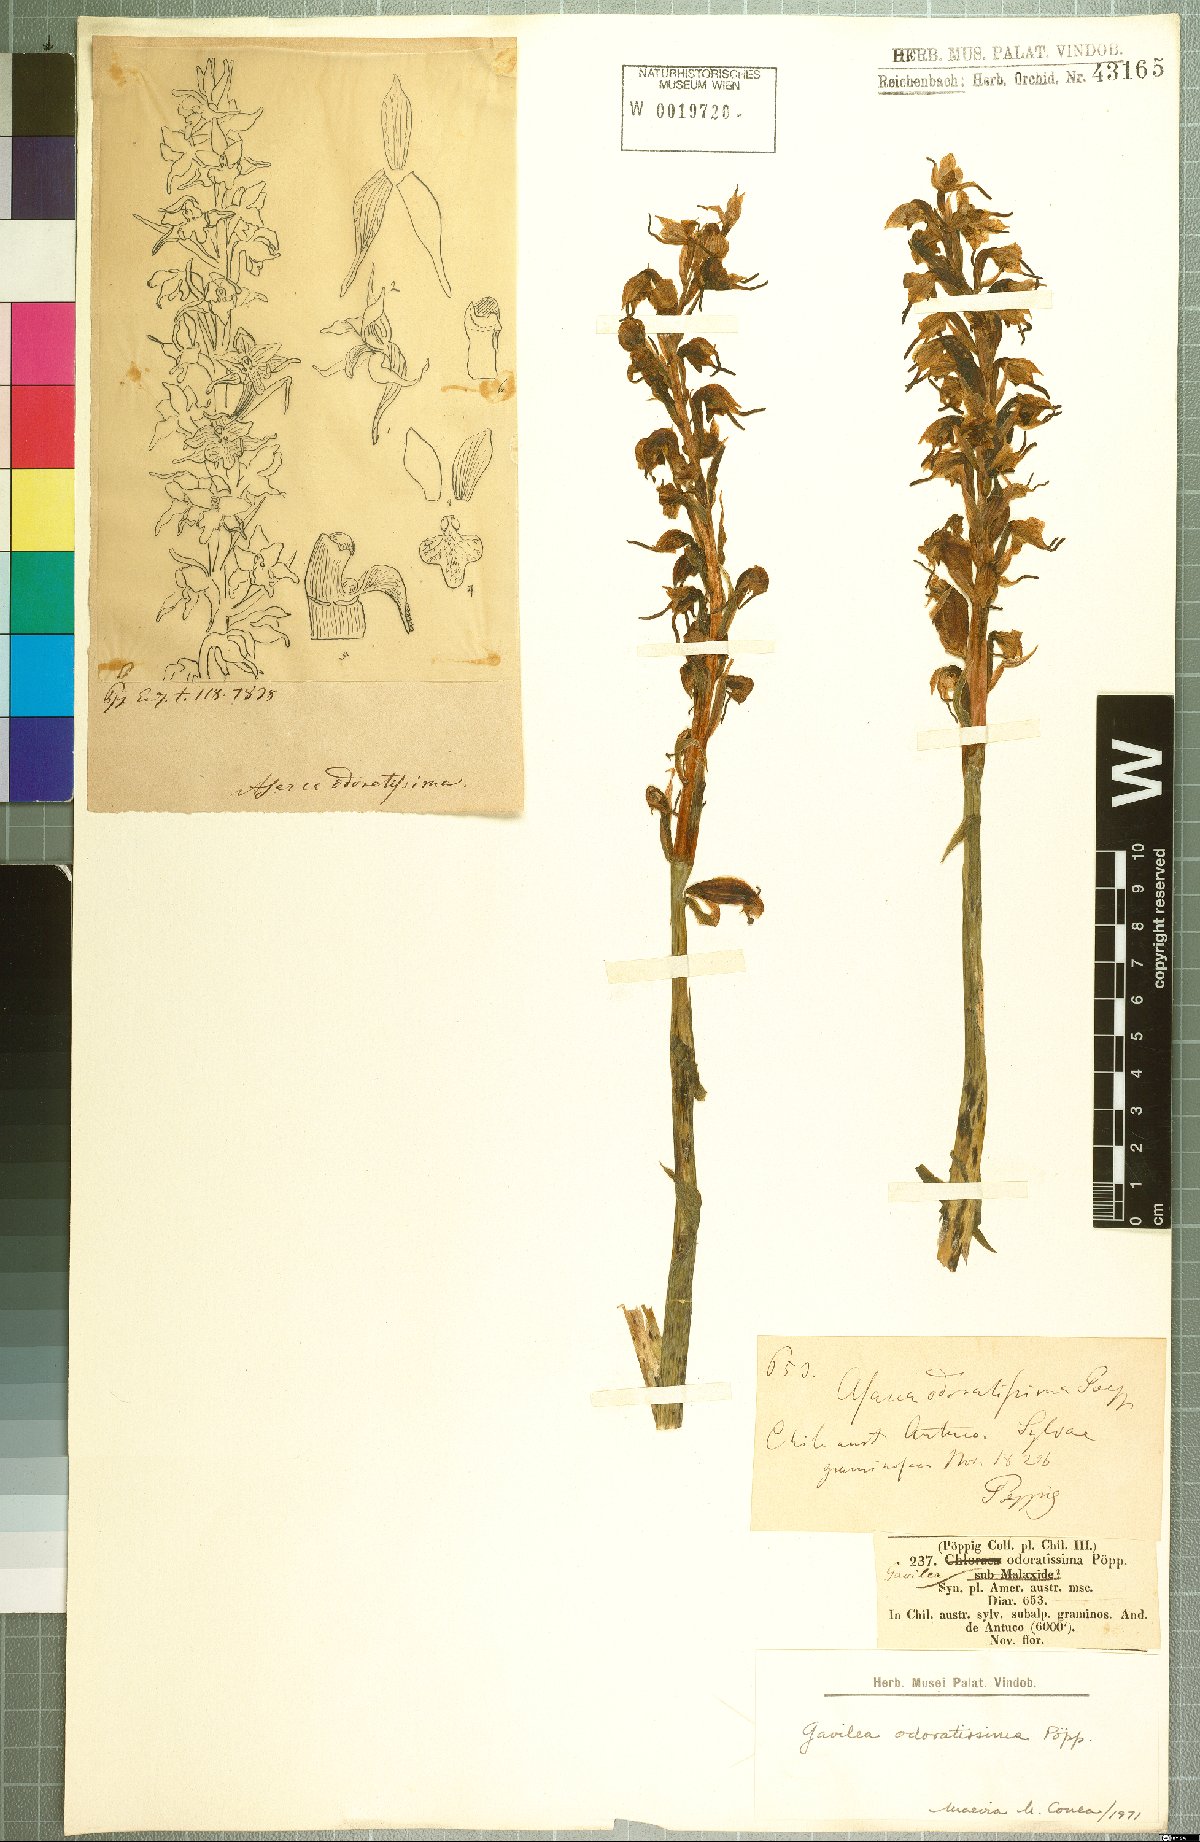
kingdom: Plantae
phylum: Tracheophyta
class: Liliopsida
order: Asparagales
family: Orchidaceae
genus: Gavilea
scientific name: Gavilea odoratissima
